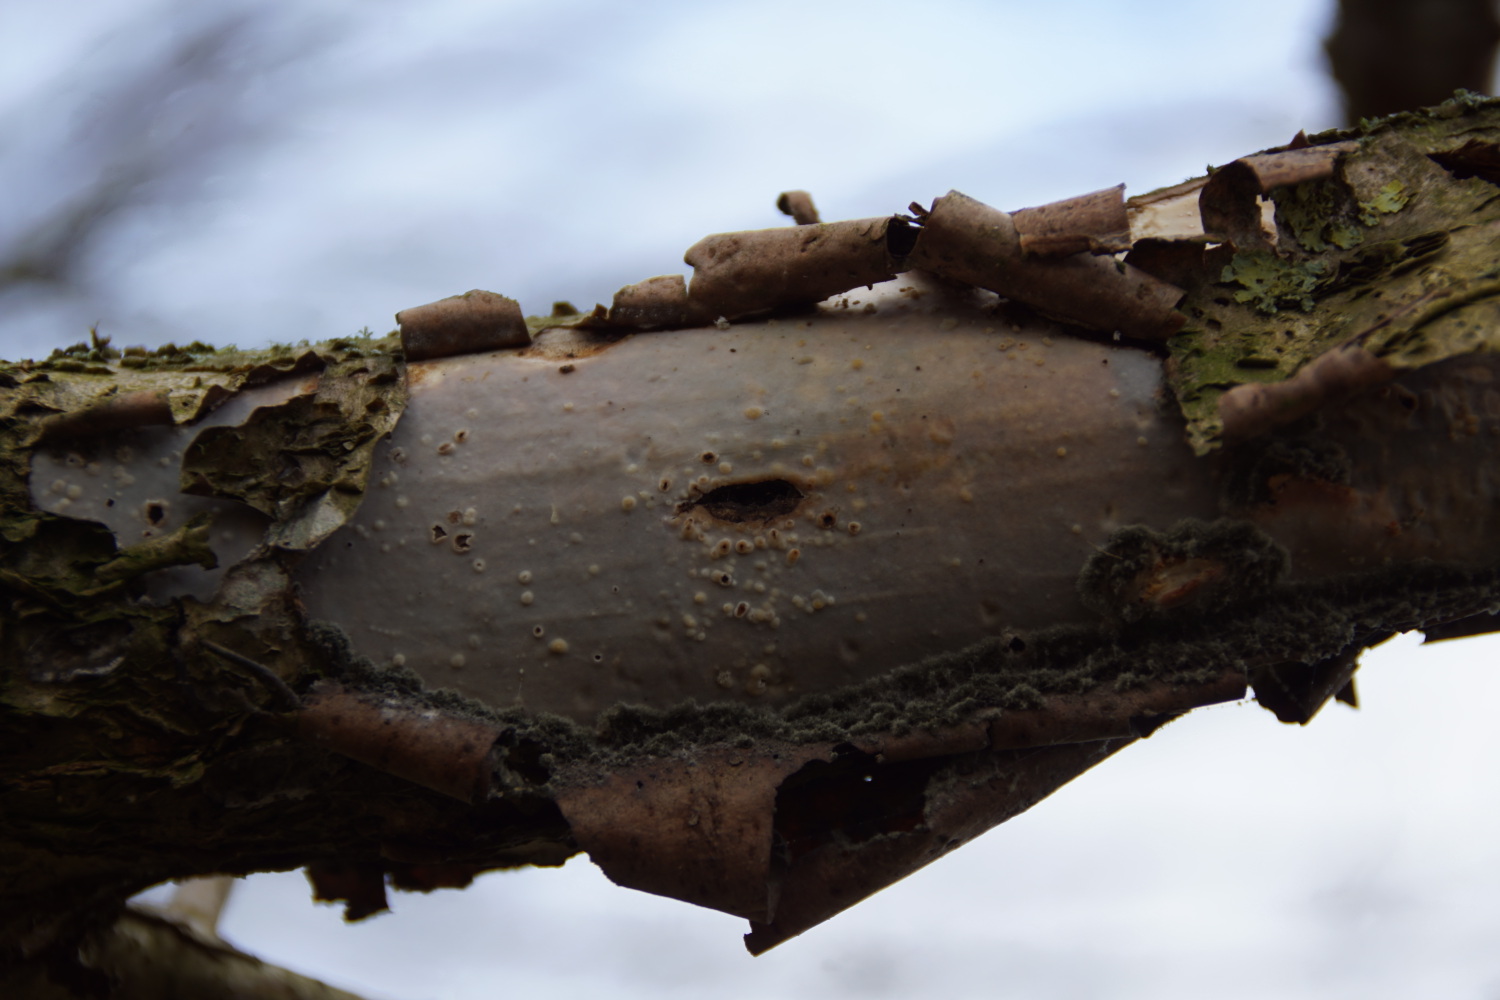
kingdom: Fungi
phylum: Basidiomycota
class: Agaricomycetes
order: Corticiales
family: Vuilleminiaceae
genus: Vuilleminia
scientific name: Vuilleminia coryli
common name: hassel-barksprænger
